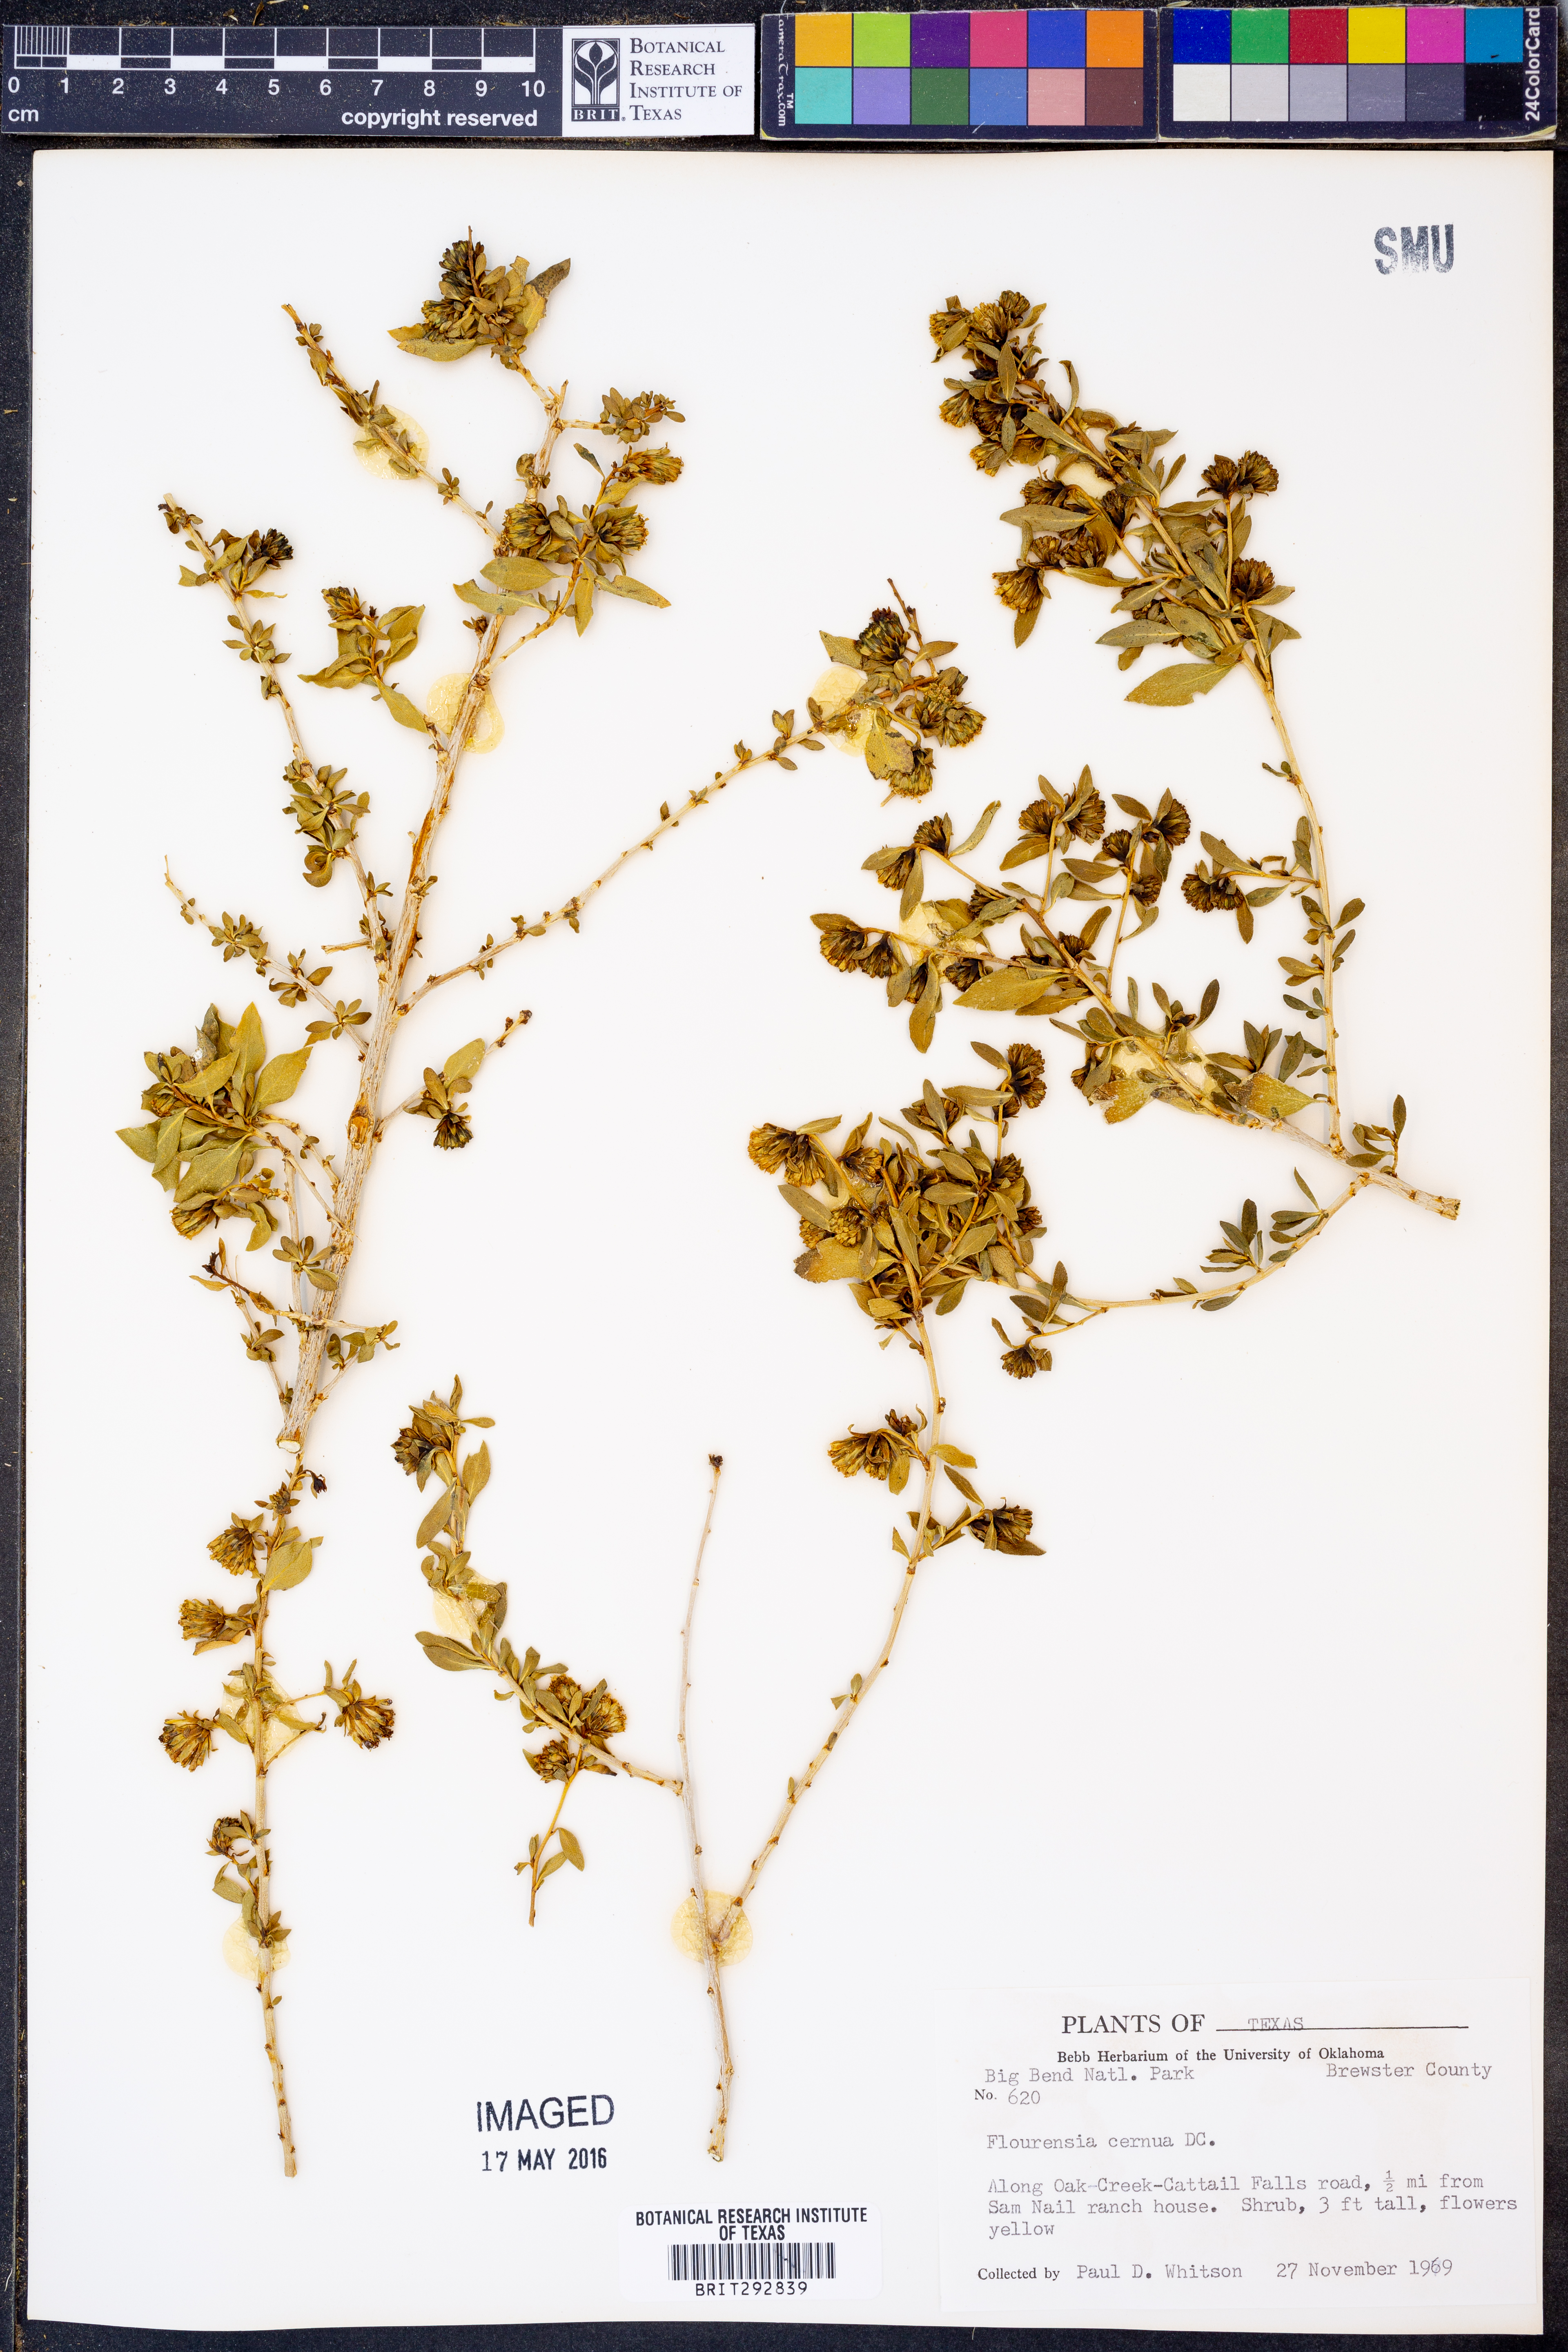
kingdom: Plantae
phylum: Tracheophyta
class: Magnoliopsida
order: Asterales
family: Asteraceae
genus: Flourensia
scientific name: Flourensia cernua
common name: Varnishbush
